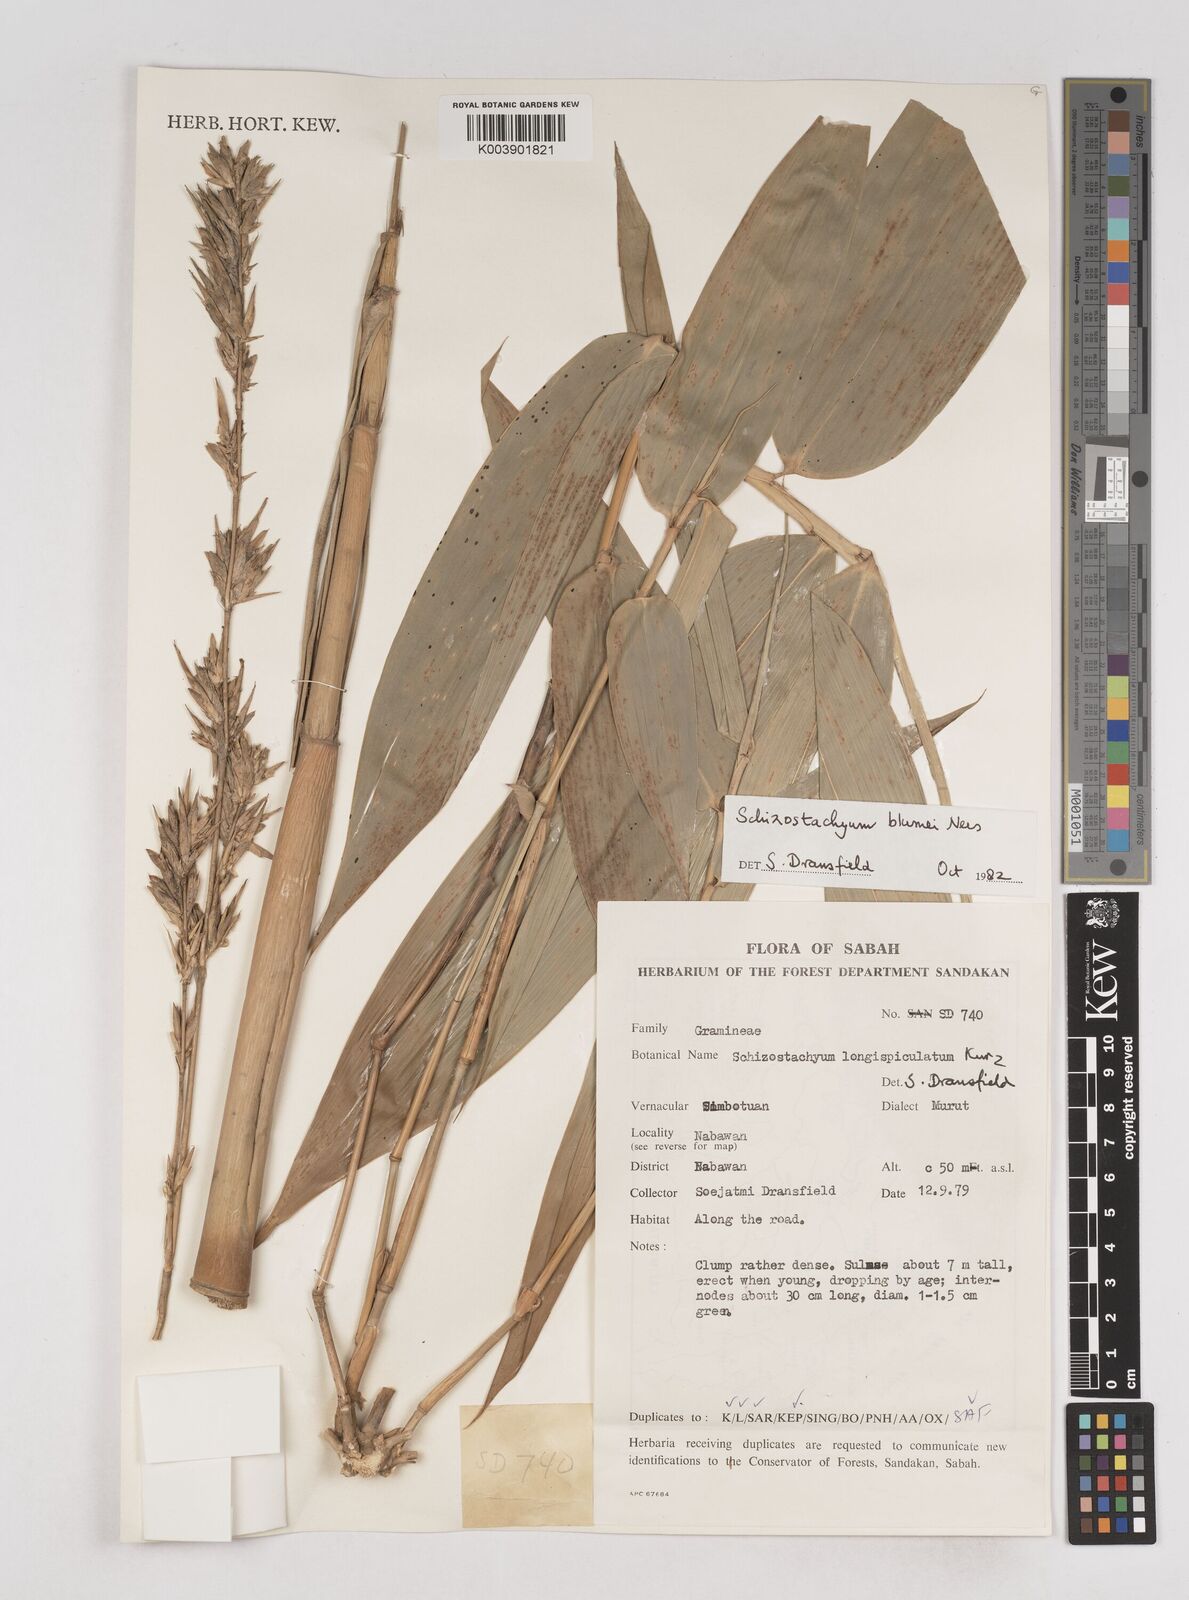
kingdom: Plantae
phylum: Tracheophyta
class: Liliopsida
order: Poales
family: Poaceae
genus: Schizostachyum
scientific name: Schizostachyum blumei
